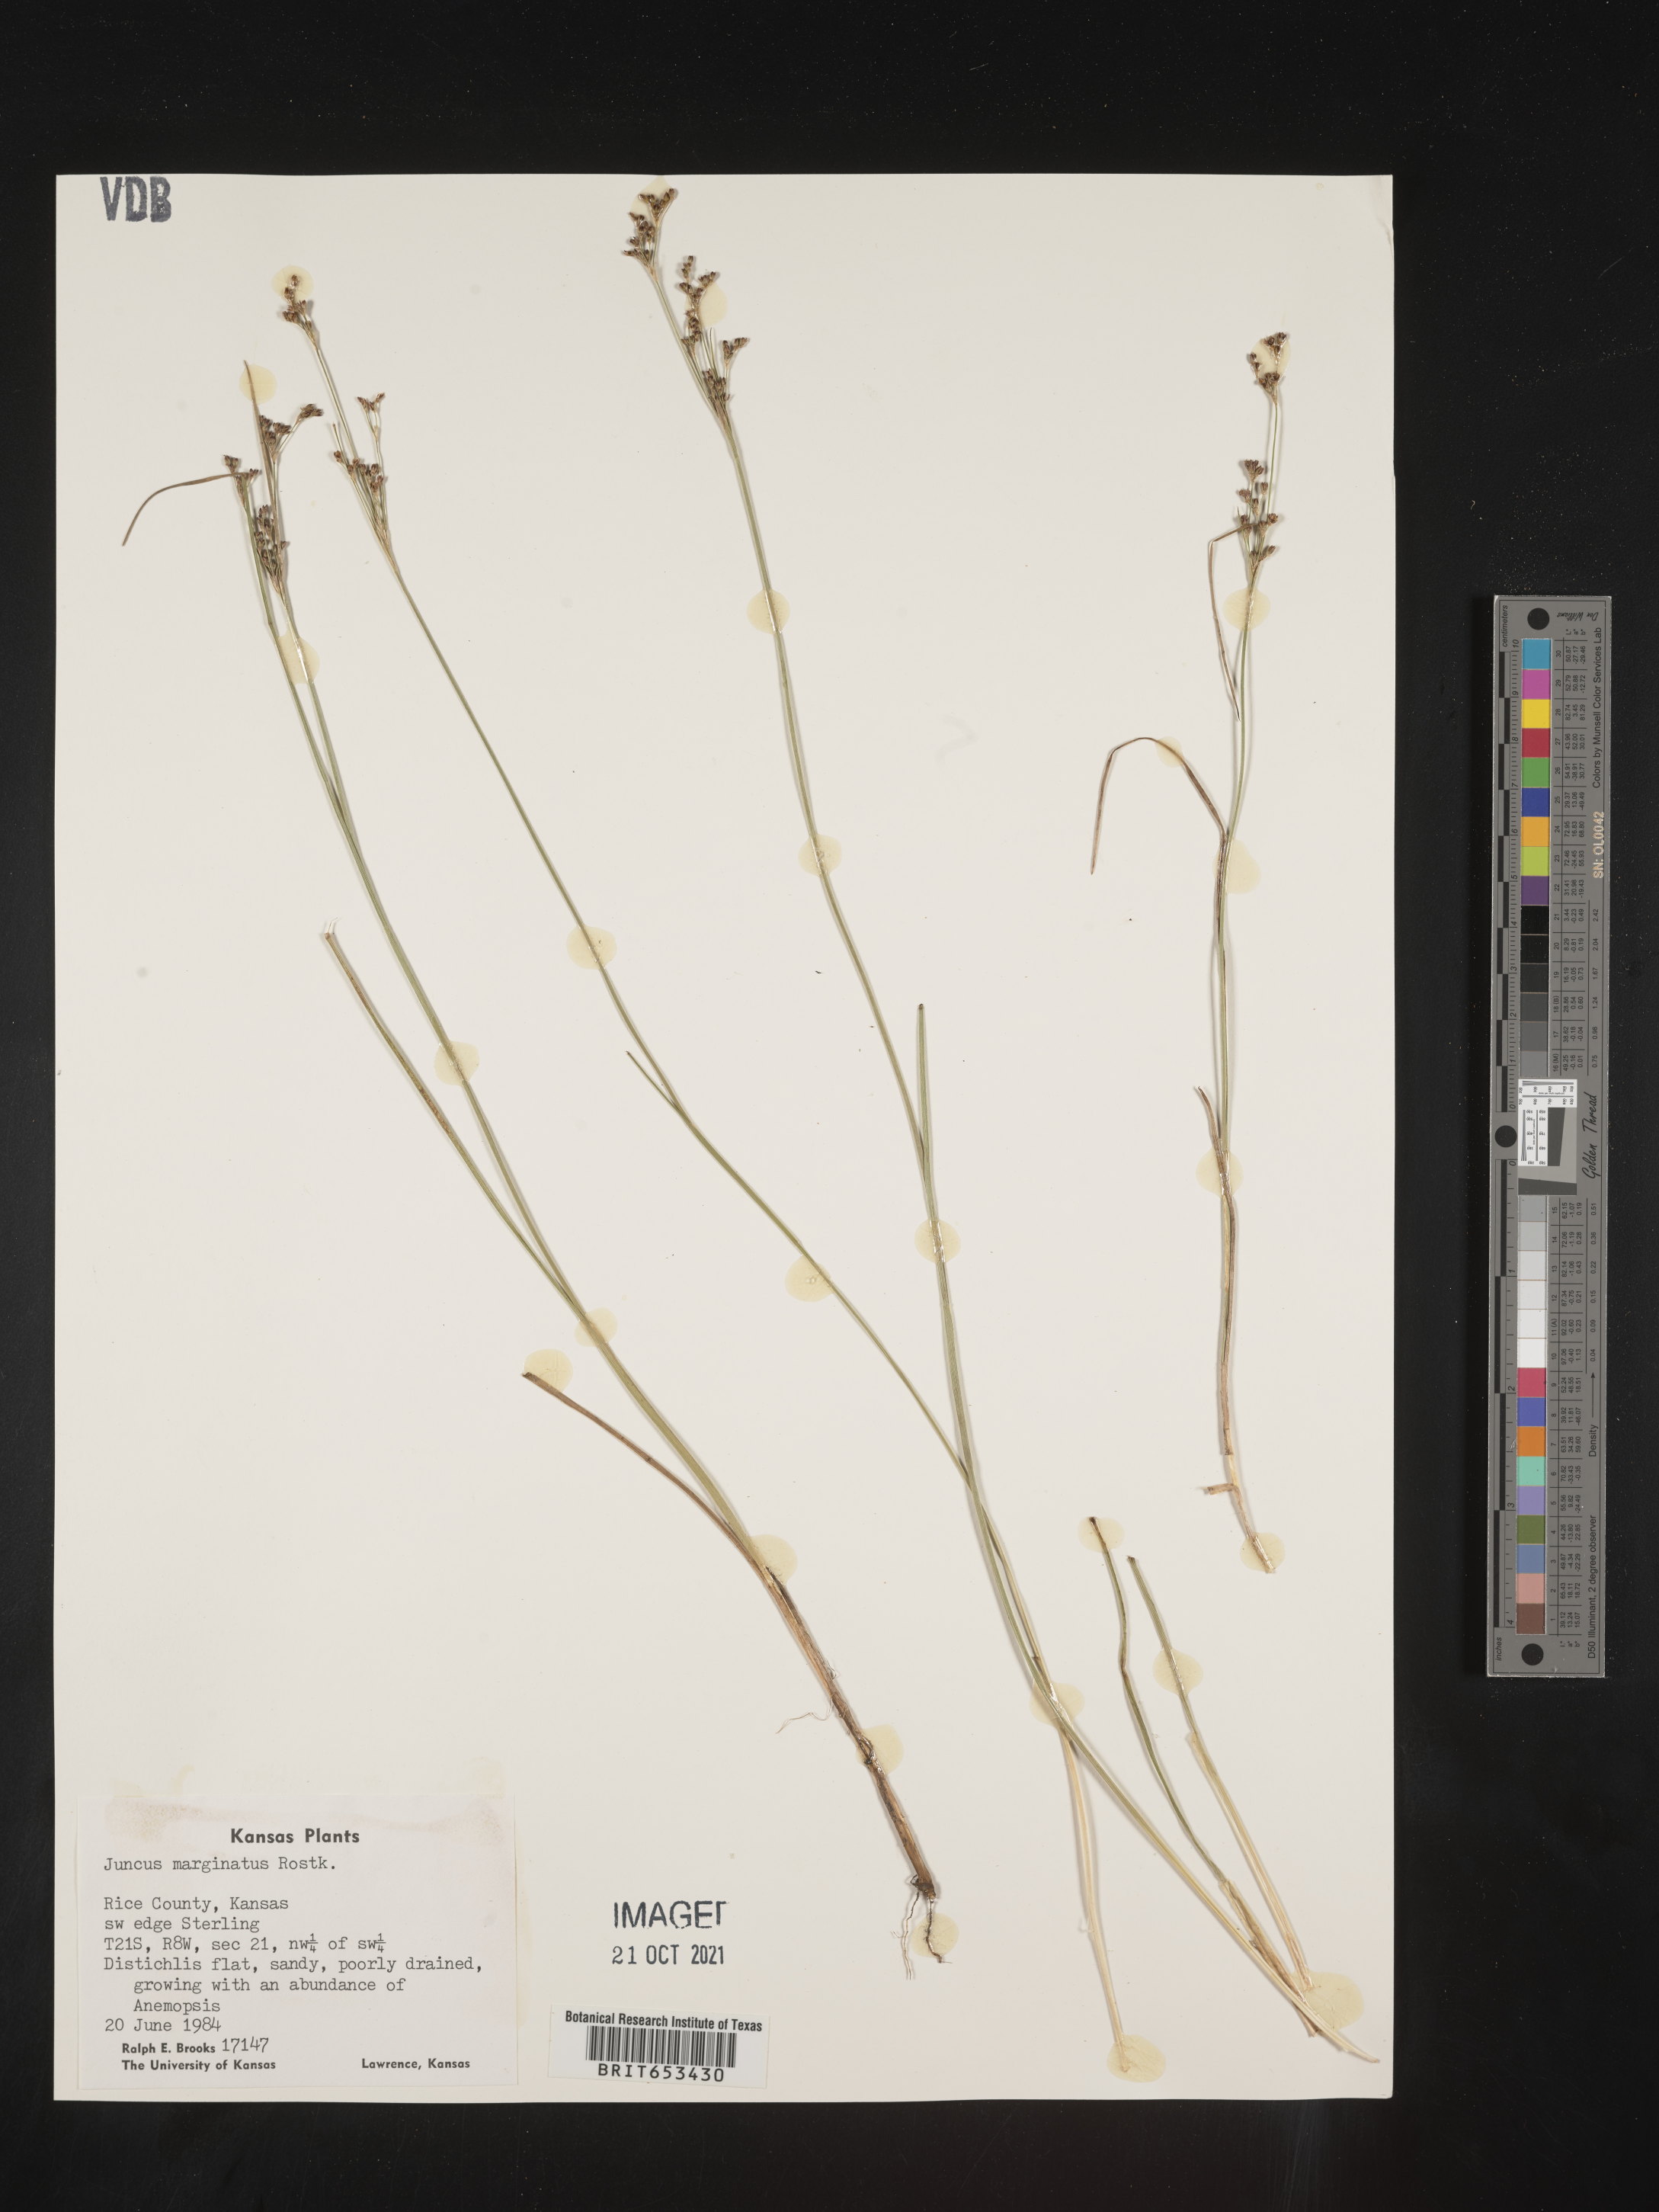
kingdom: Plantae
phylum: Tracheophyta
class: Liliopsida
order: Poales
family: Juncaceae
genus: Juncus
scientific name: Juncus marginatus
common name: Grass-leaf rush
